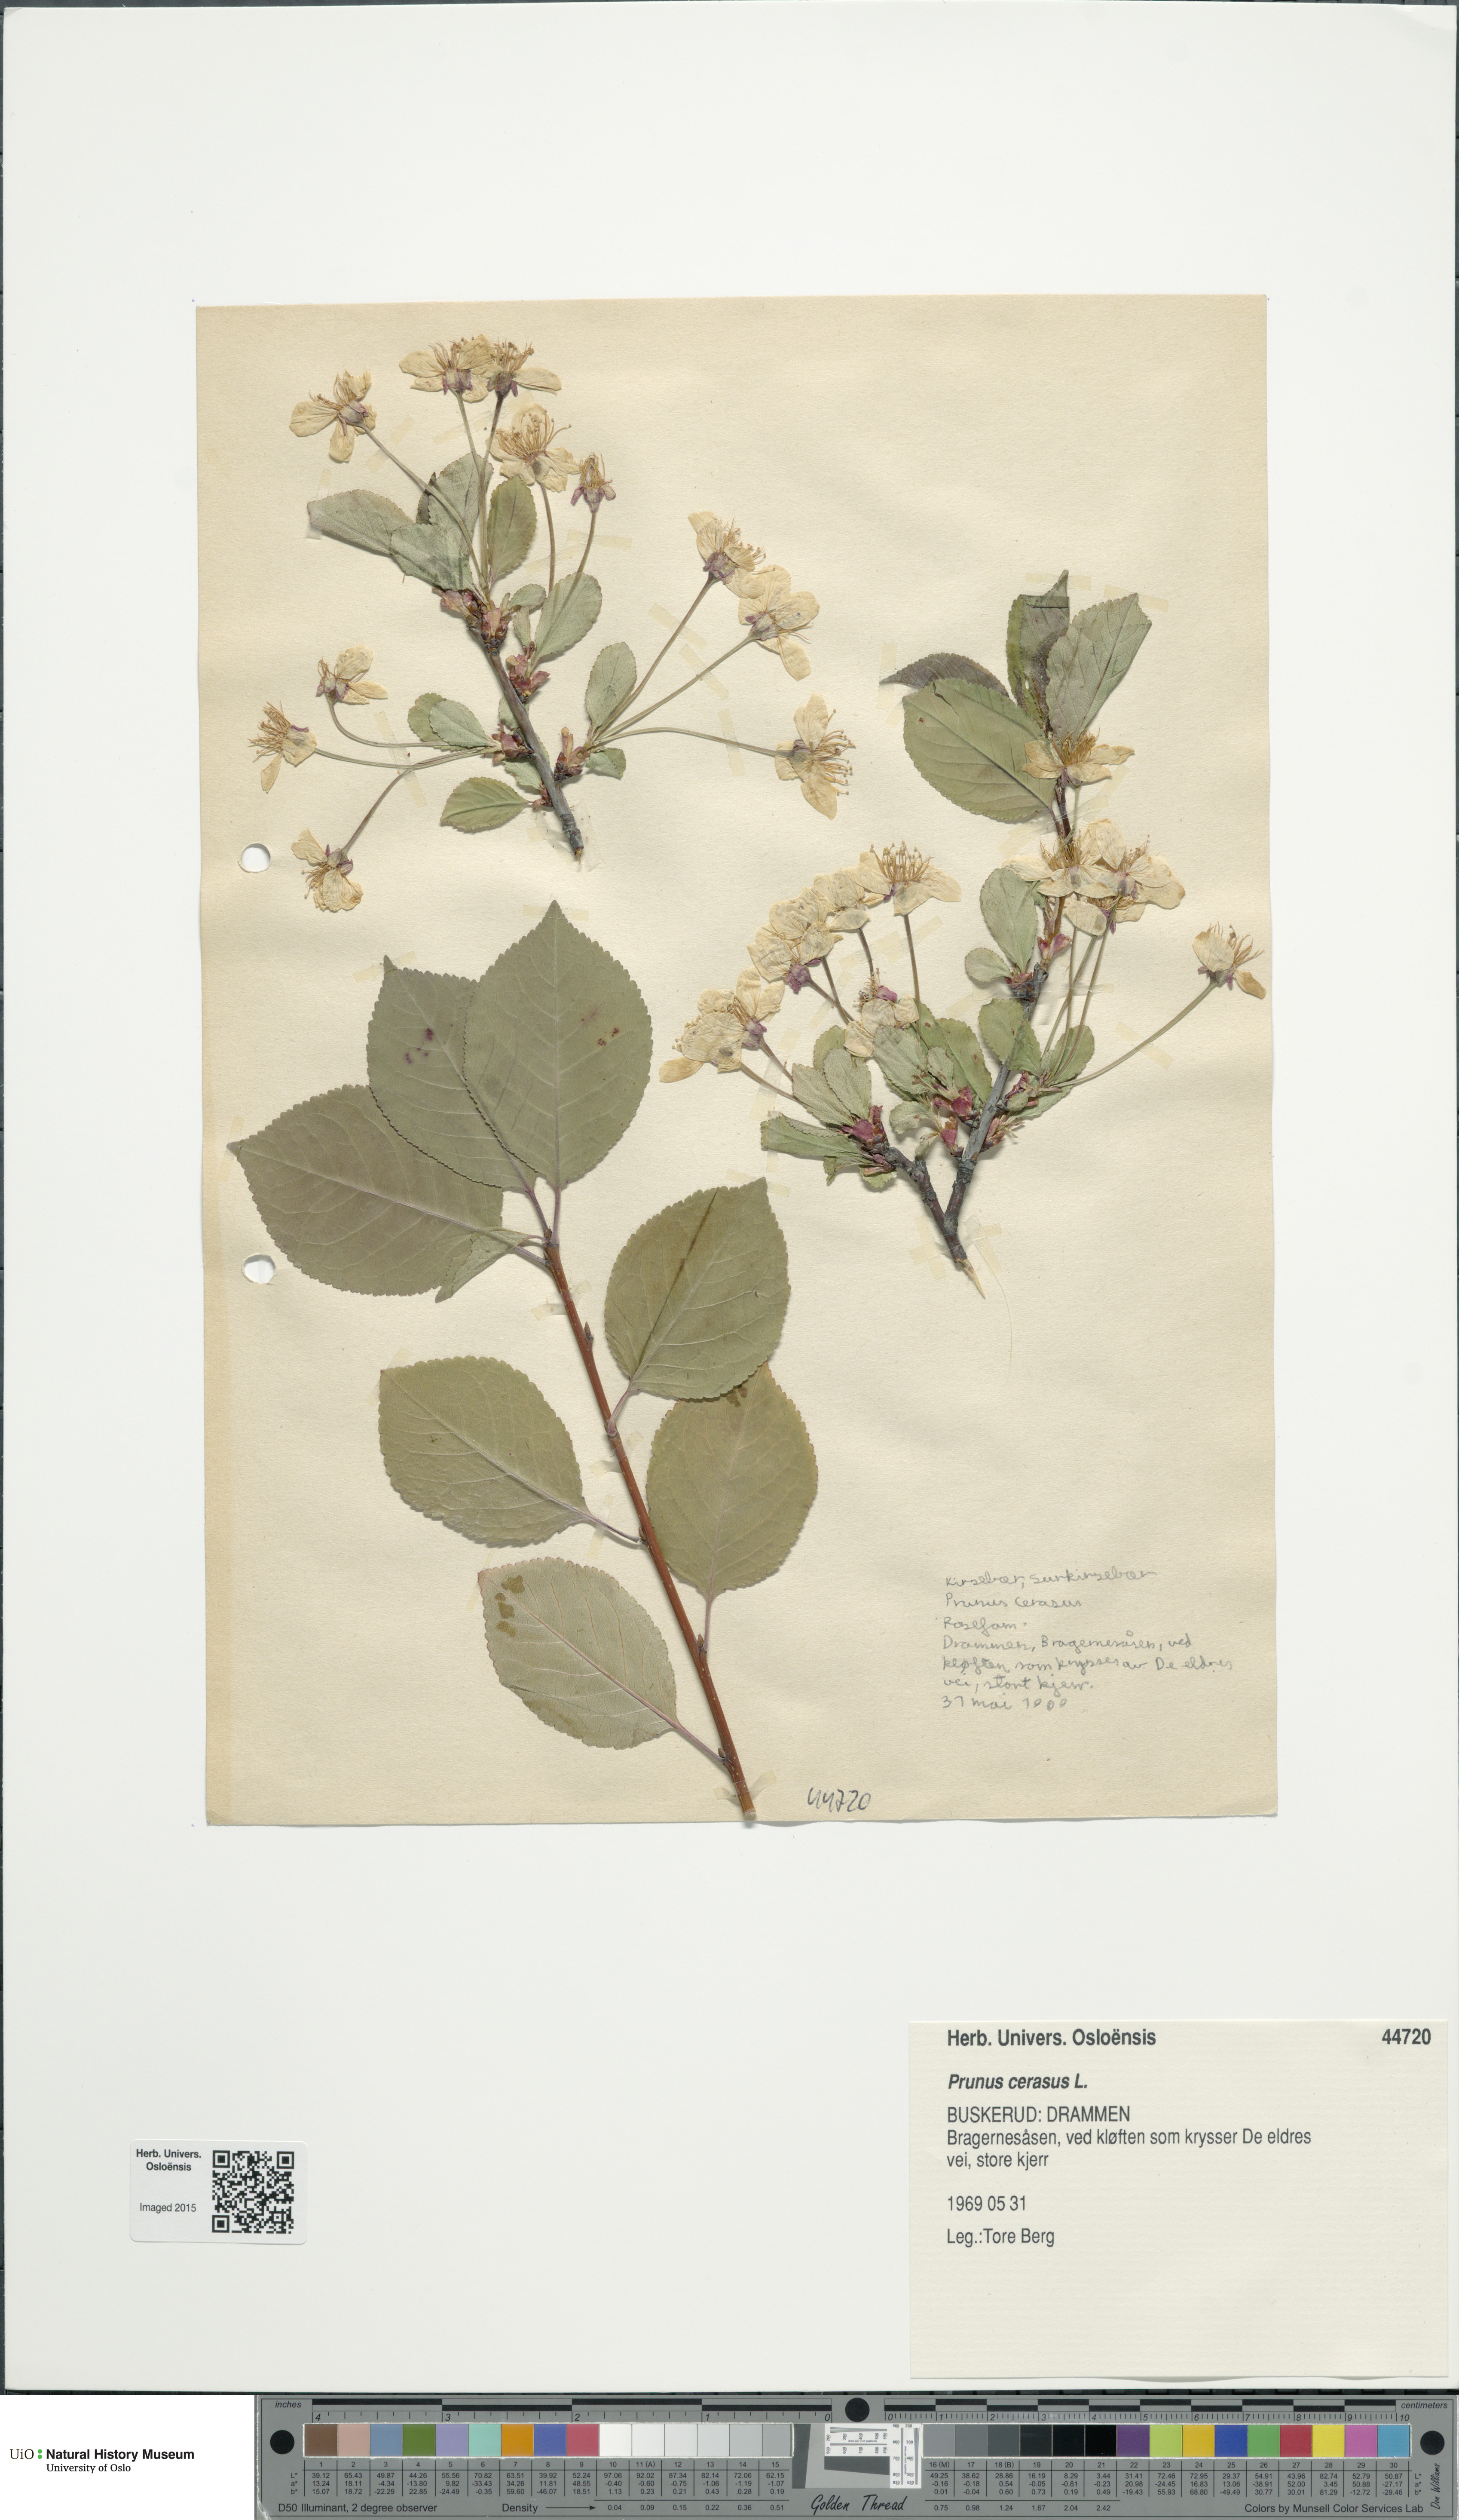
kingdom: Plantae
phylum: Tracheophyta
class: Magnoliopsida
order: Rosales
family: Rosaceae
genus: Prunus
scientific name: Prunus cerasus
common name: Morello cherry
